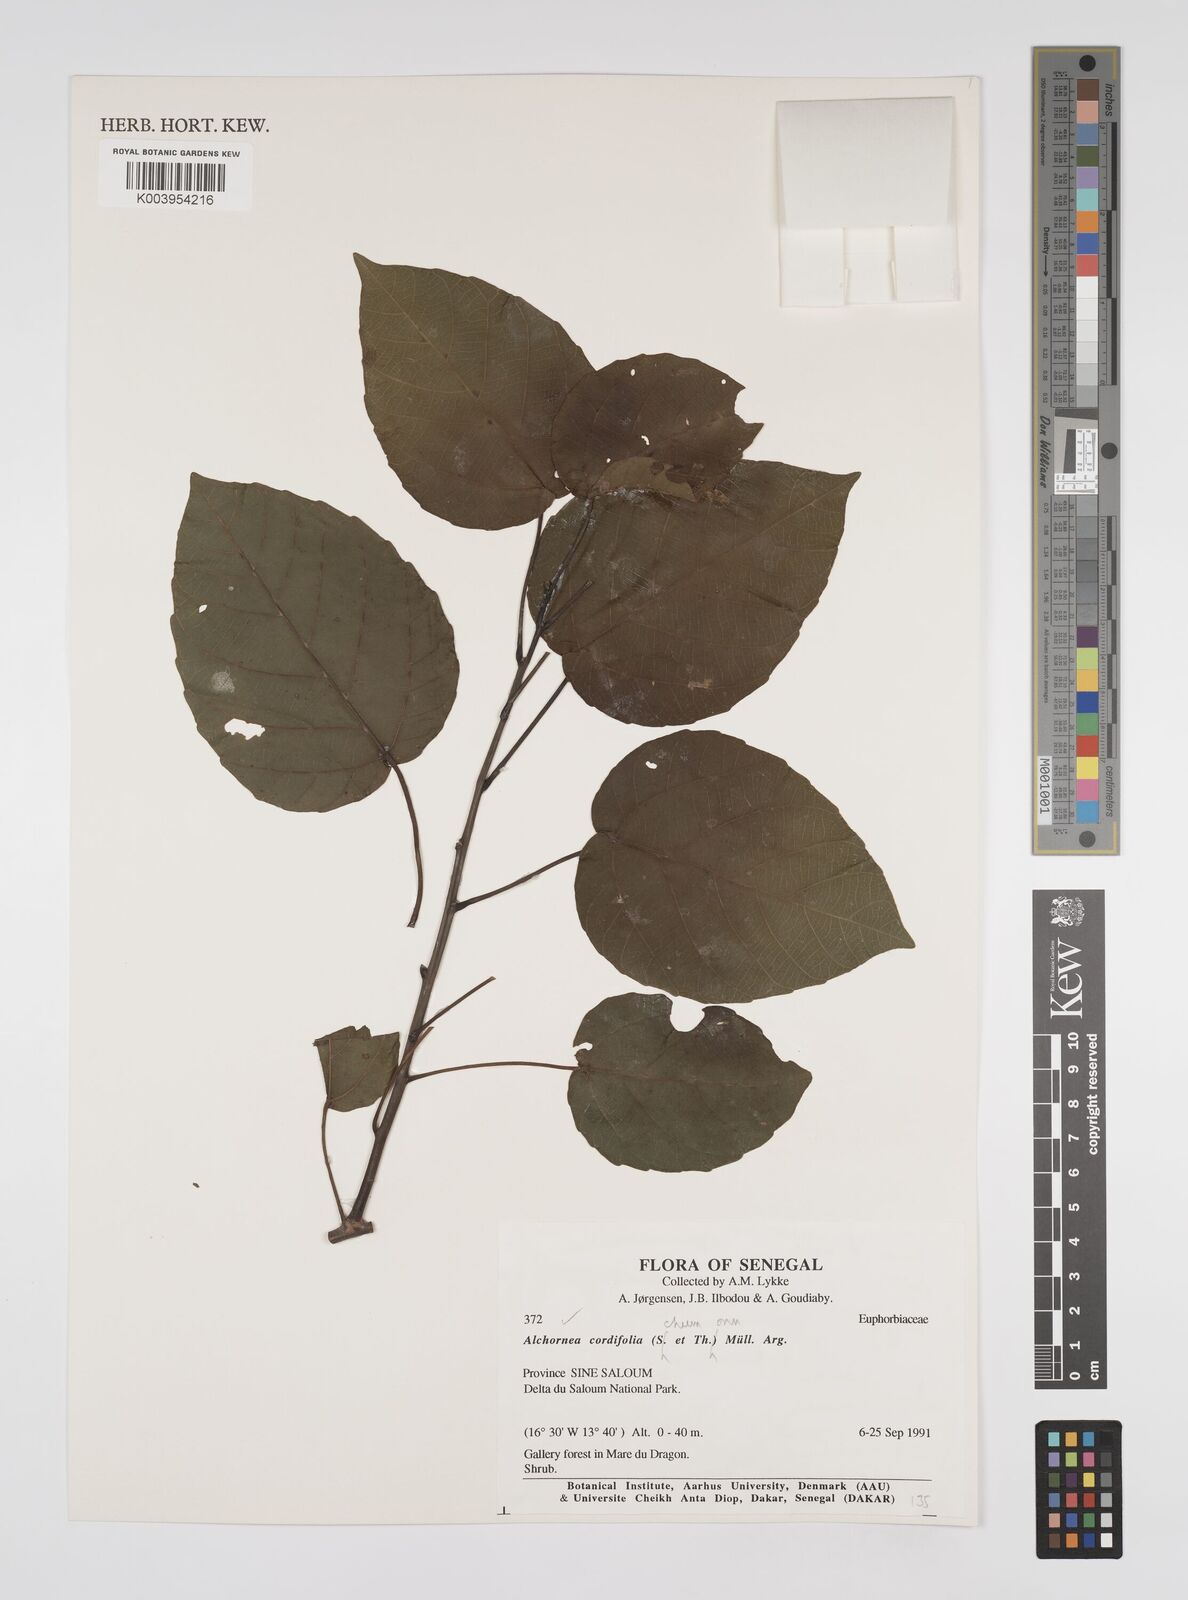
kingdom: Plantae
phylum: Tracheophyta
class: Magnoliopsida
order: Malpighiales
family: Euphorbiaceae
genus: Alchornea
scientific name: Alchornea cordifolia
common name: Christmasbush
